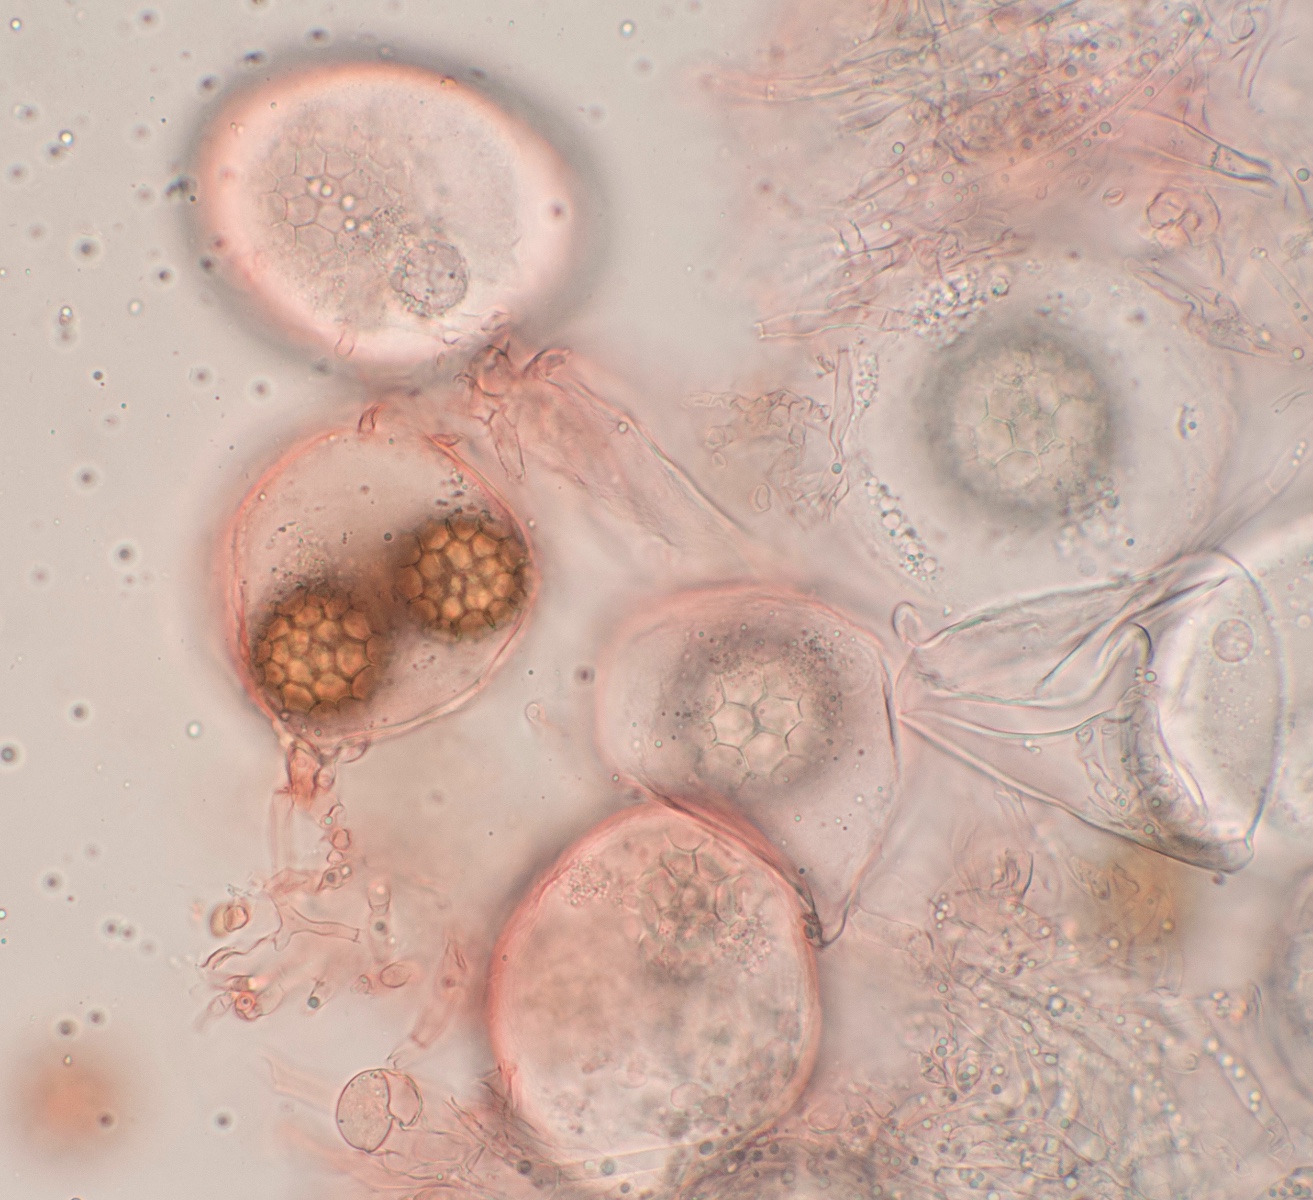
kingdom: Fungi
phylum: Ascomycota
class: Pezizomycetes
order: Pezizales
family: Tuberaceae
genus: Tuber
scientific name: Tuber
